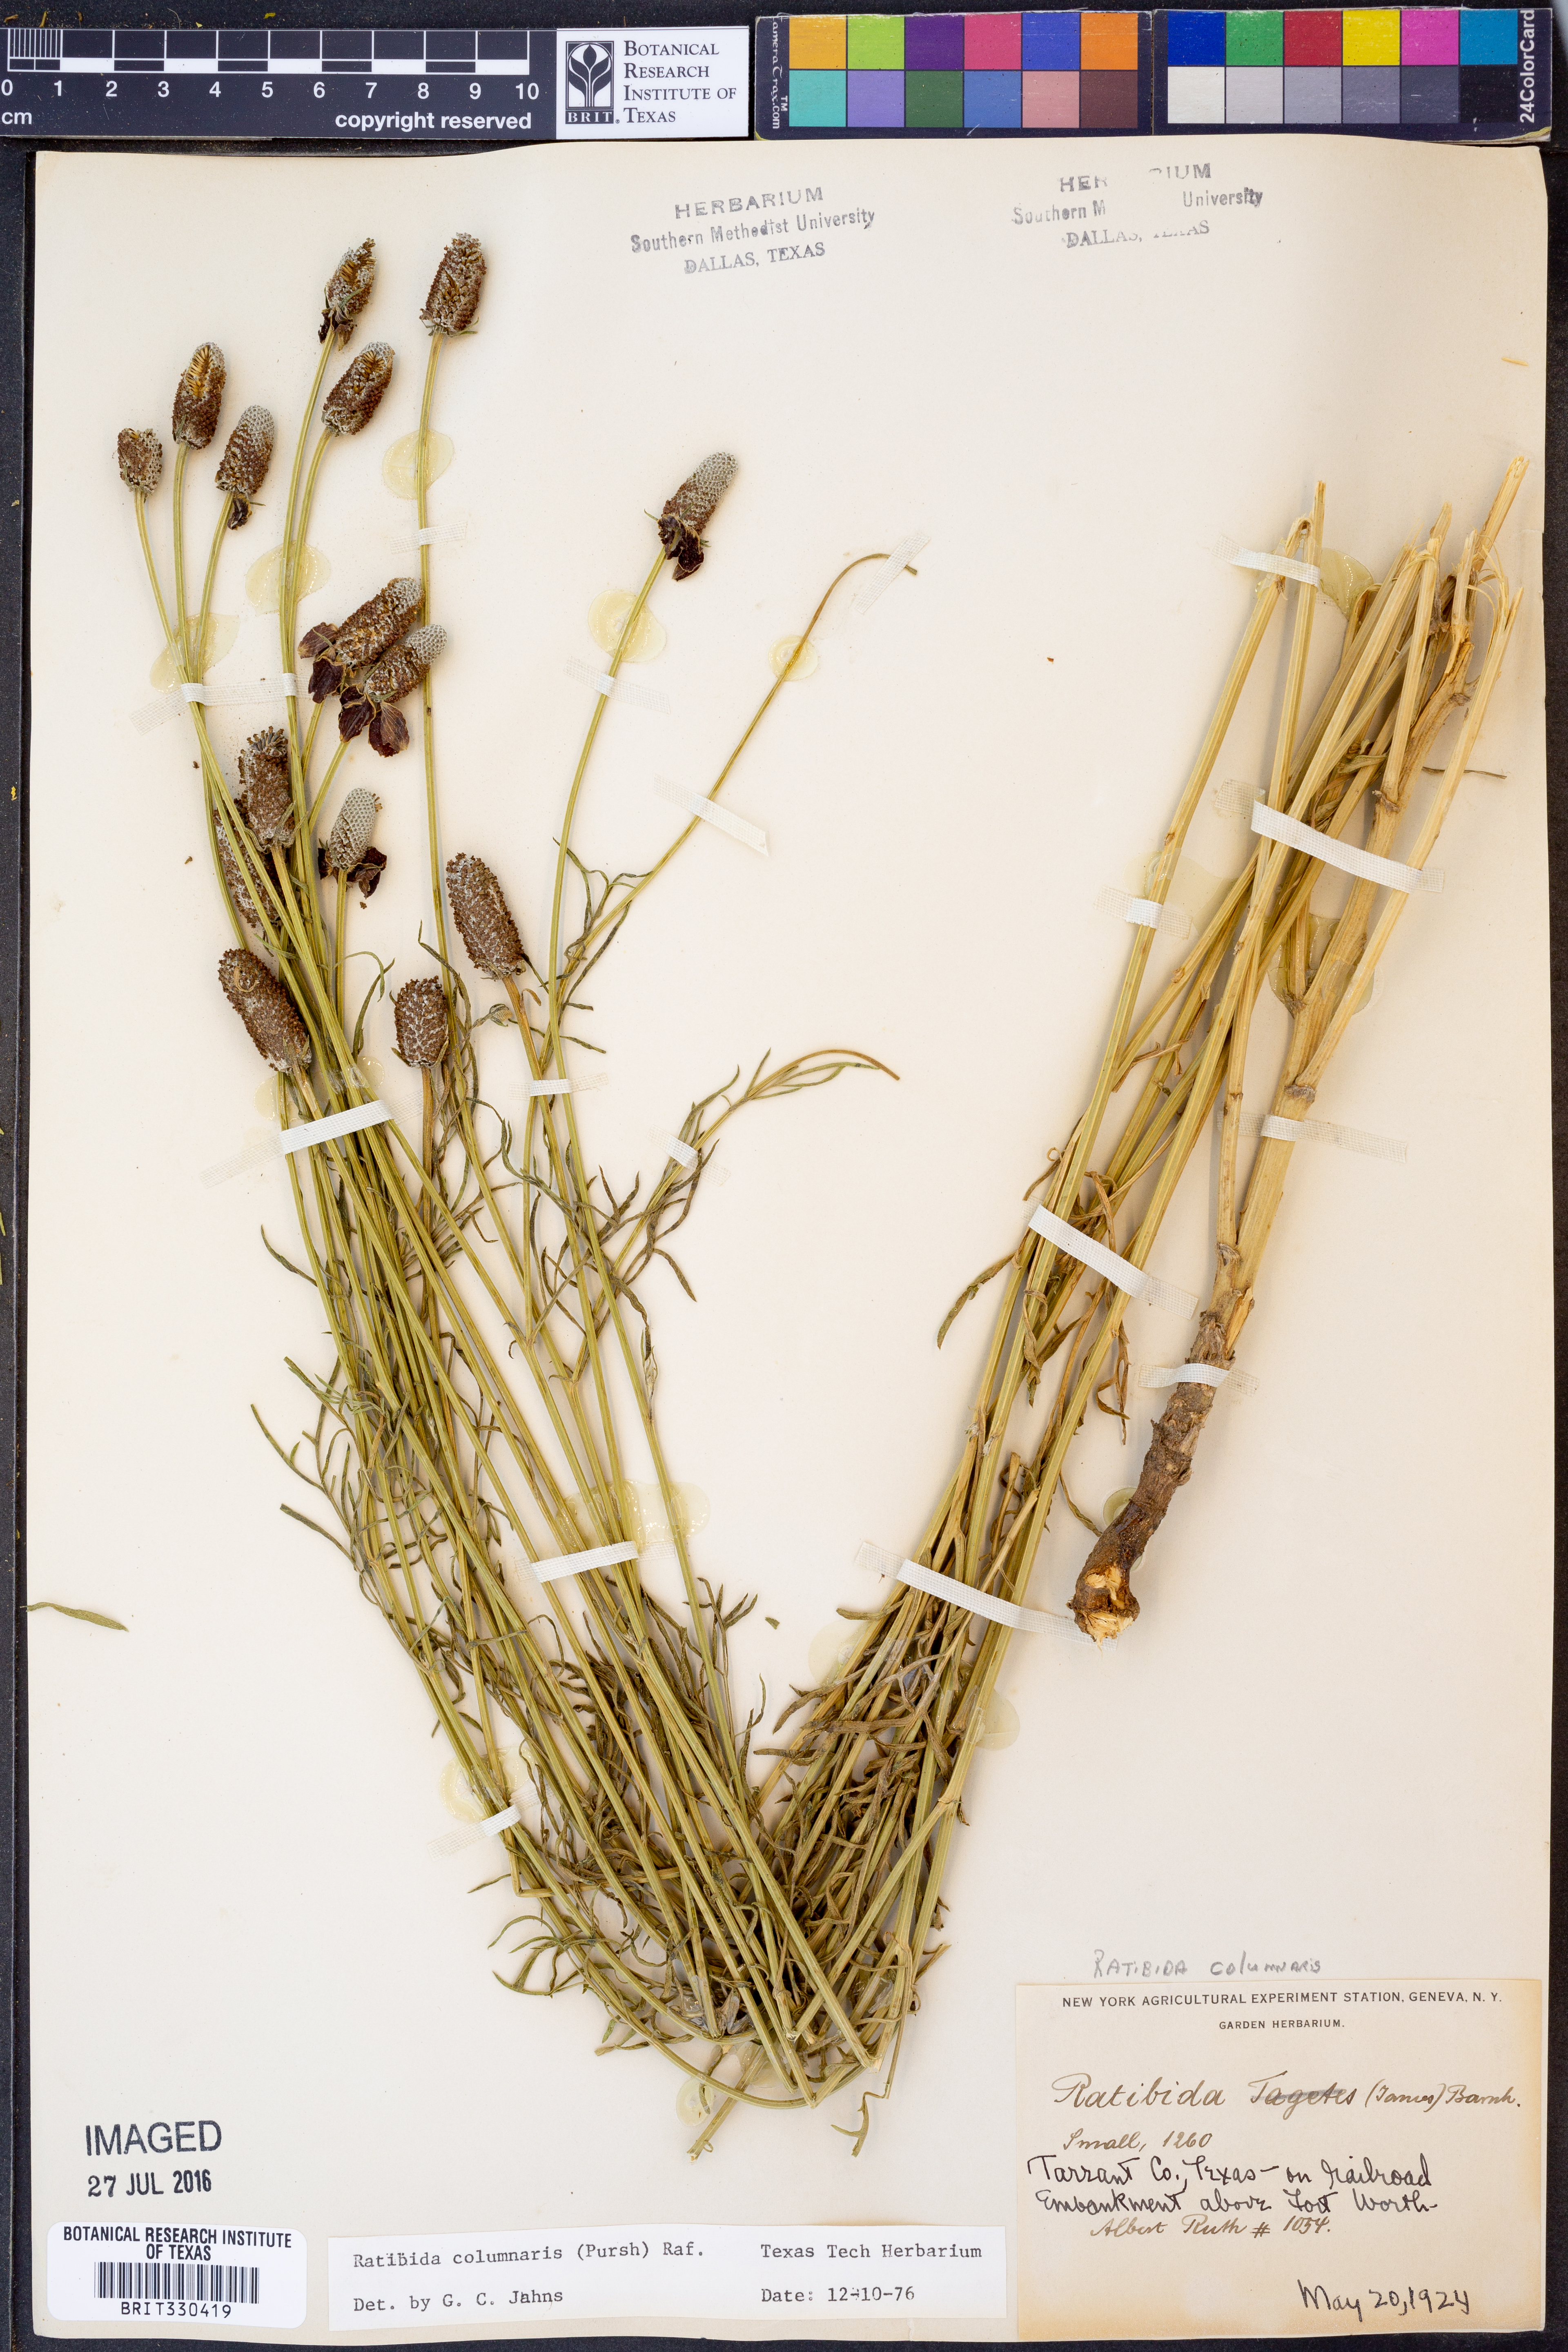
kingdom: Plantae
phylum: Tracheophyta
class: Magnoliopsida
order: Asterales
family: Asteraceae
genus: Ratibida
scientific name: Ratibida columnifera
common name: Prairie coneflower
